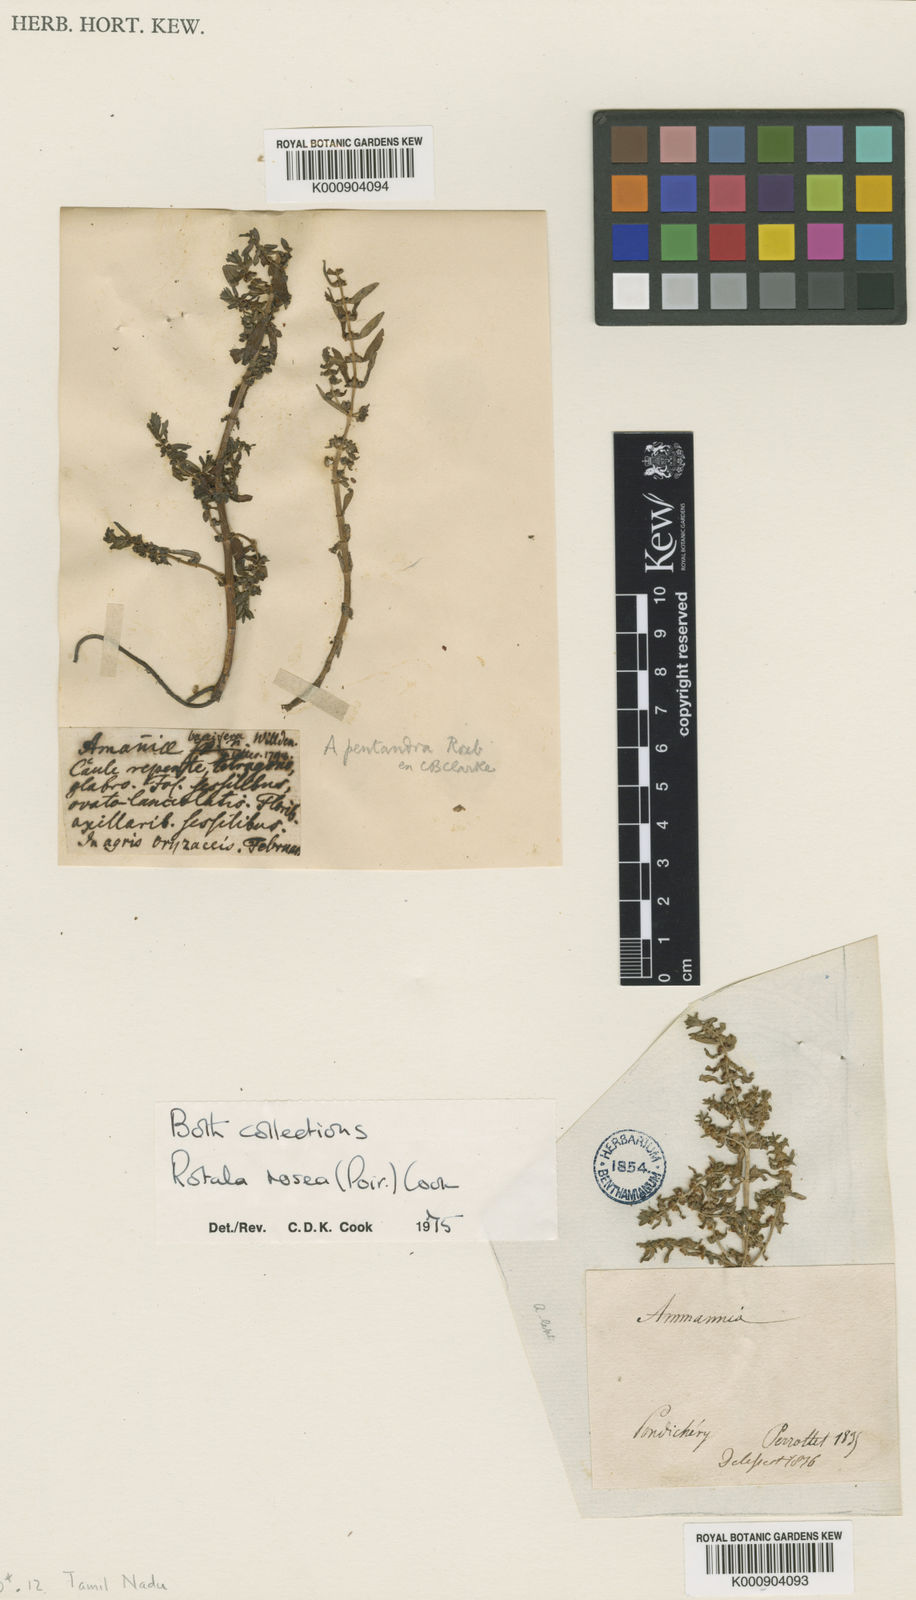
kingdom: Plantae
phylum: Tracheophyta
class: Magnoliopsida
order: Myrtales
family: Lythraceae
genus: Rotala
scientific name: Rotala rosea
